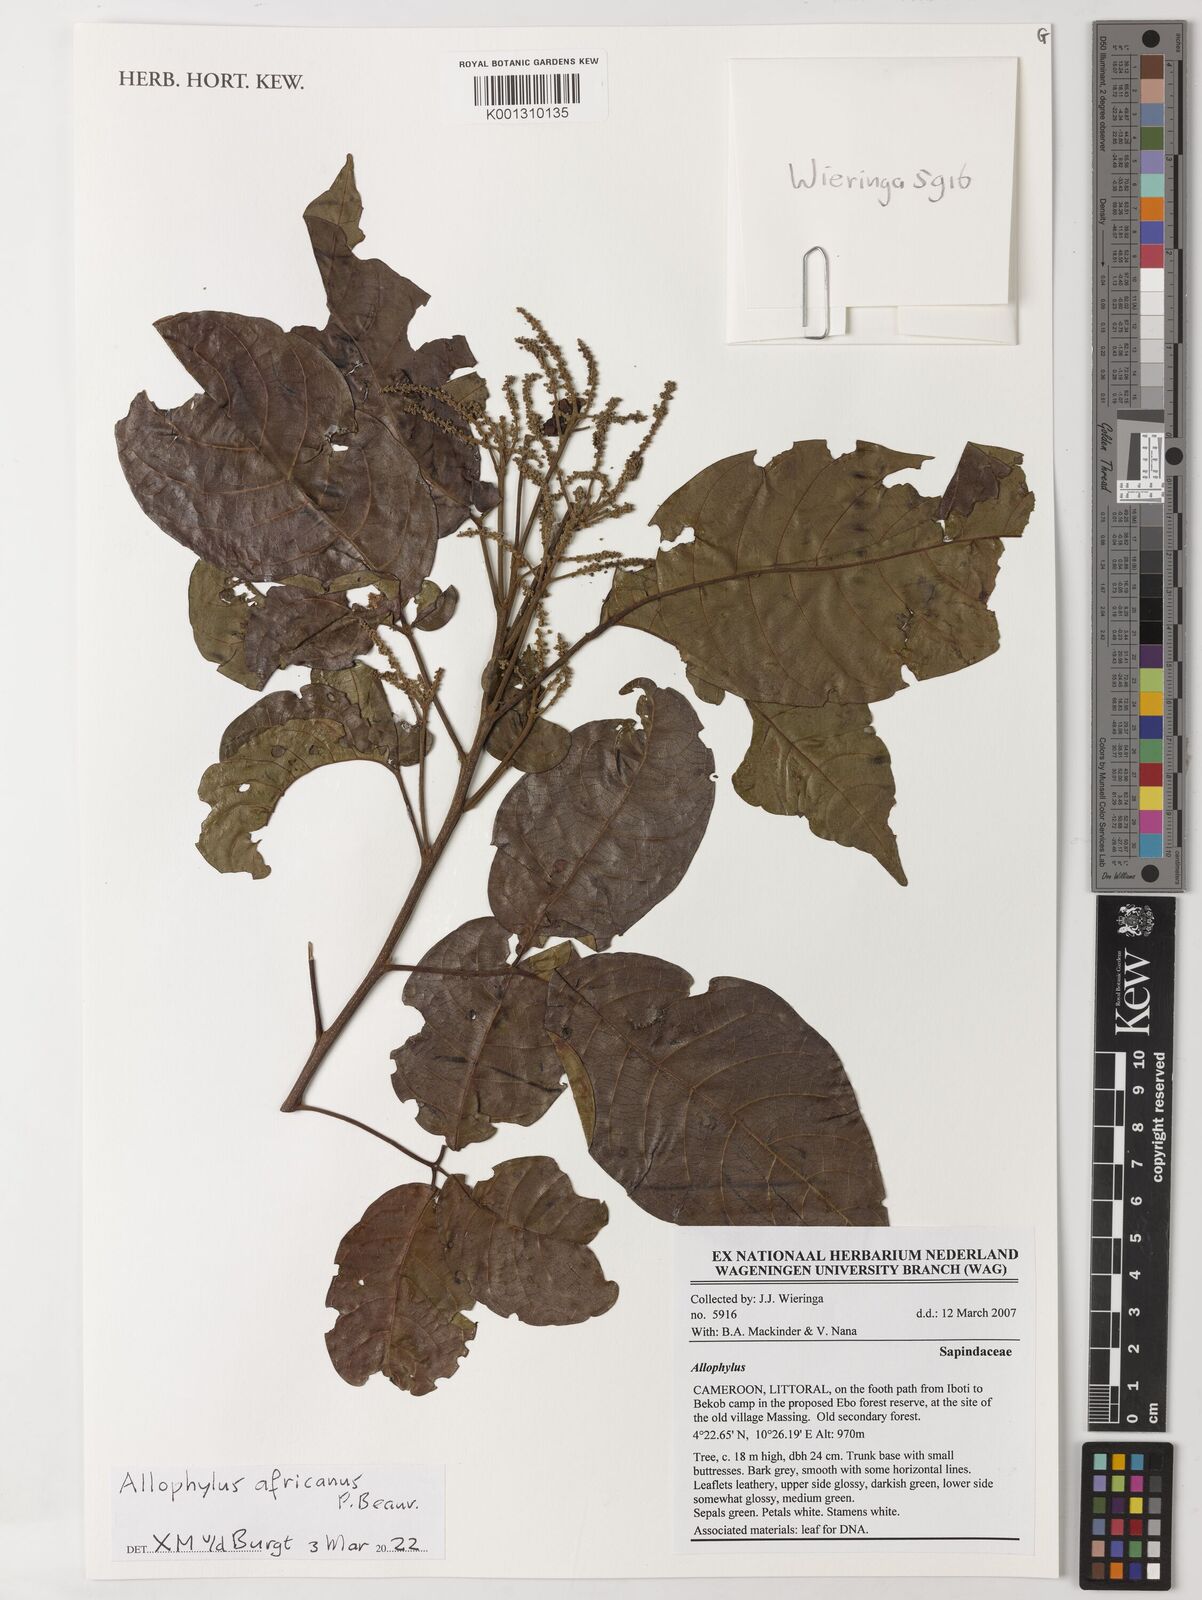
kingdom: Plantae
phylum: Tracheophyta
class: Magnoliopsida
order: Sapindales
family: Sapindaceae
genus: Allophylus
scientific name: Allophylus africanus
